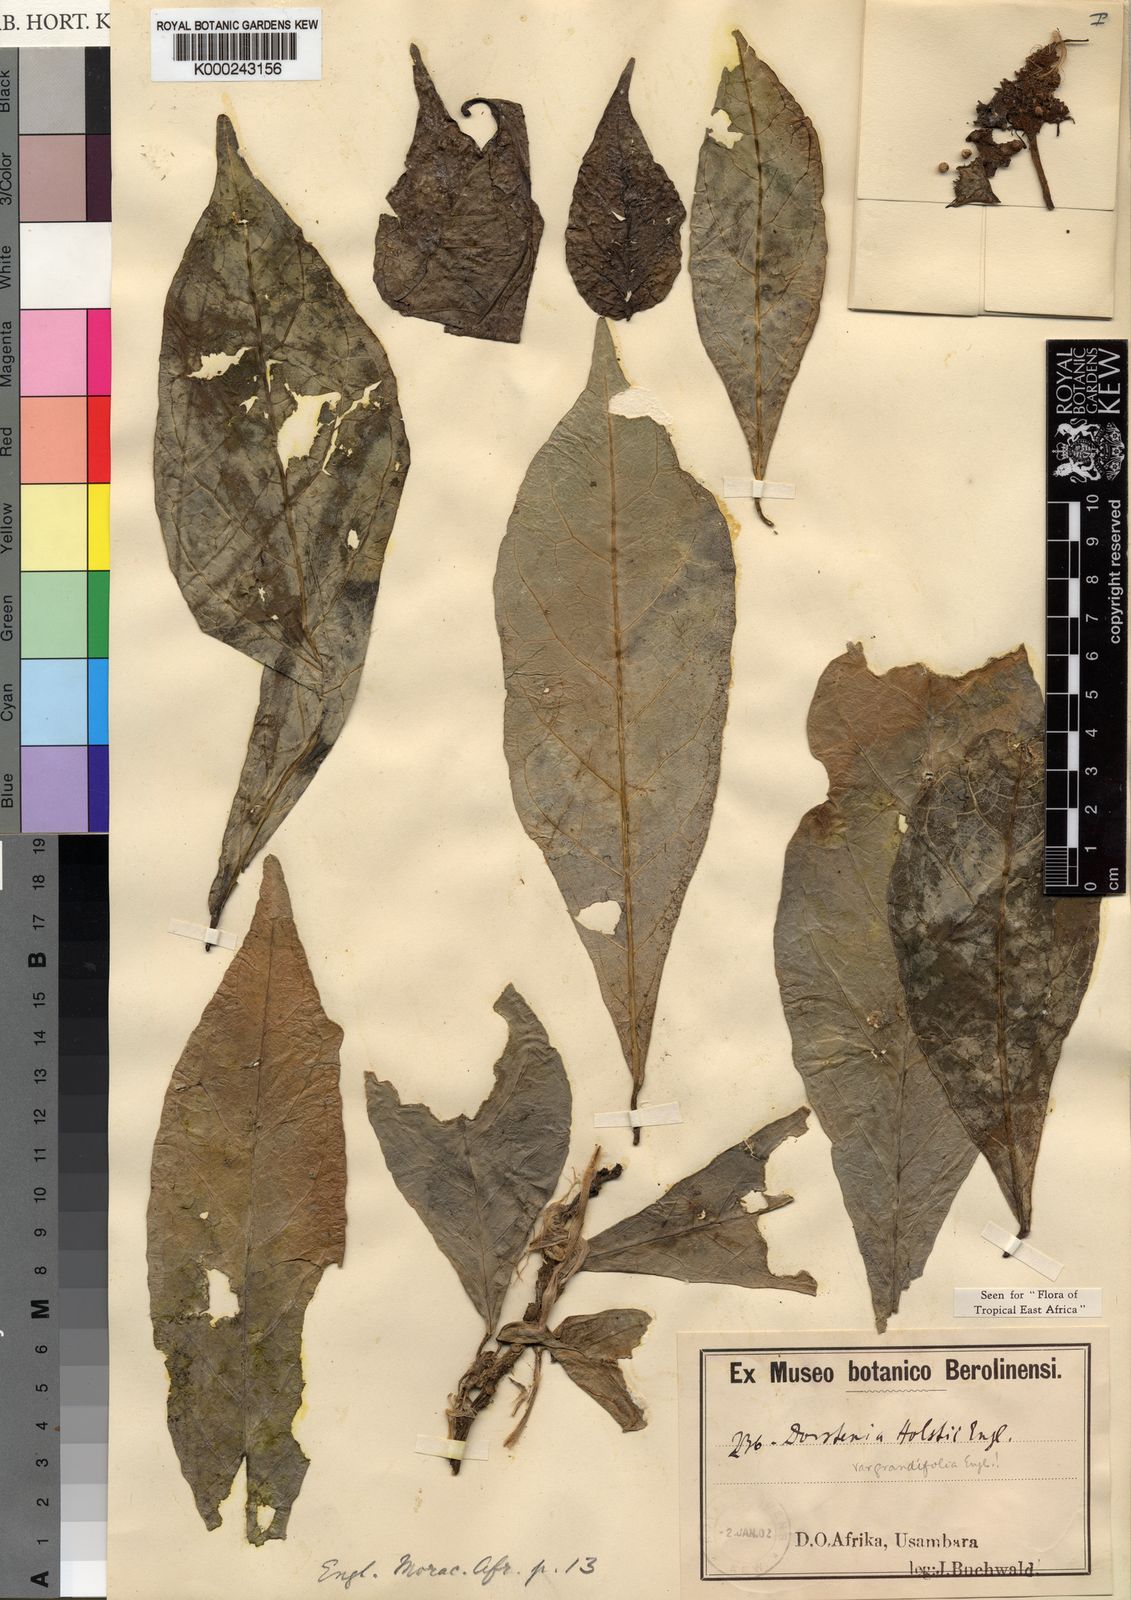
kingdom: Plantae
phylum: Tracheophyta
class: Magnoliopsida
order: Rosales
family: Moraceae
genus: Dorstenia
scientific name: Dorstenia
